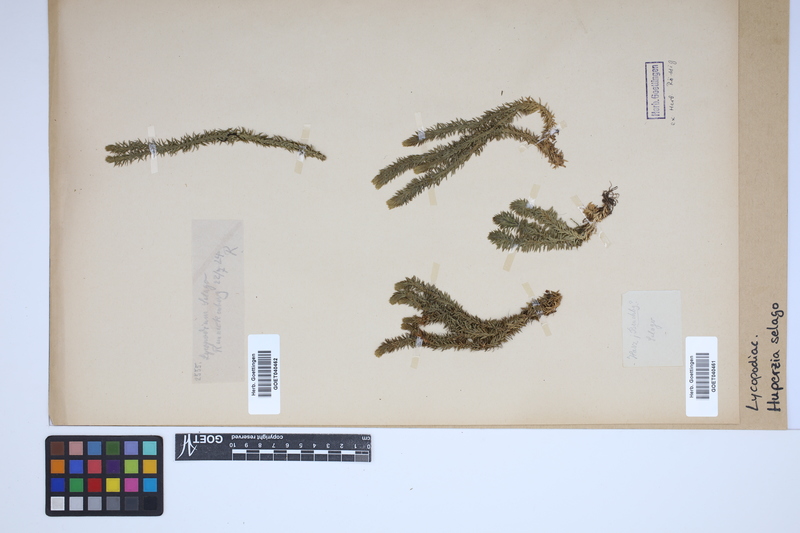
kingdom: Plantae
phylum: Tracheophyta
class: Lycopodiopsida
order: Lycopodiales
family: Lycopodiaceae
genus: Huperzia
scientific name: Huperzia selago
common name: Northern firmoss
